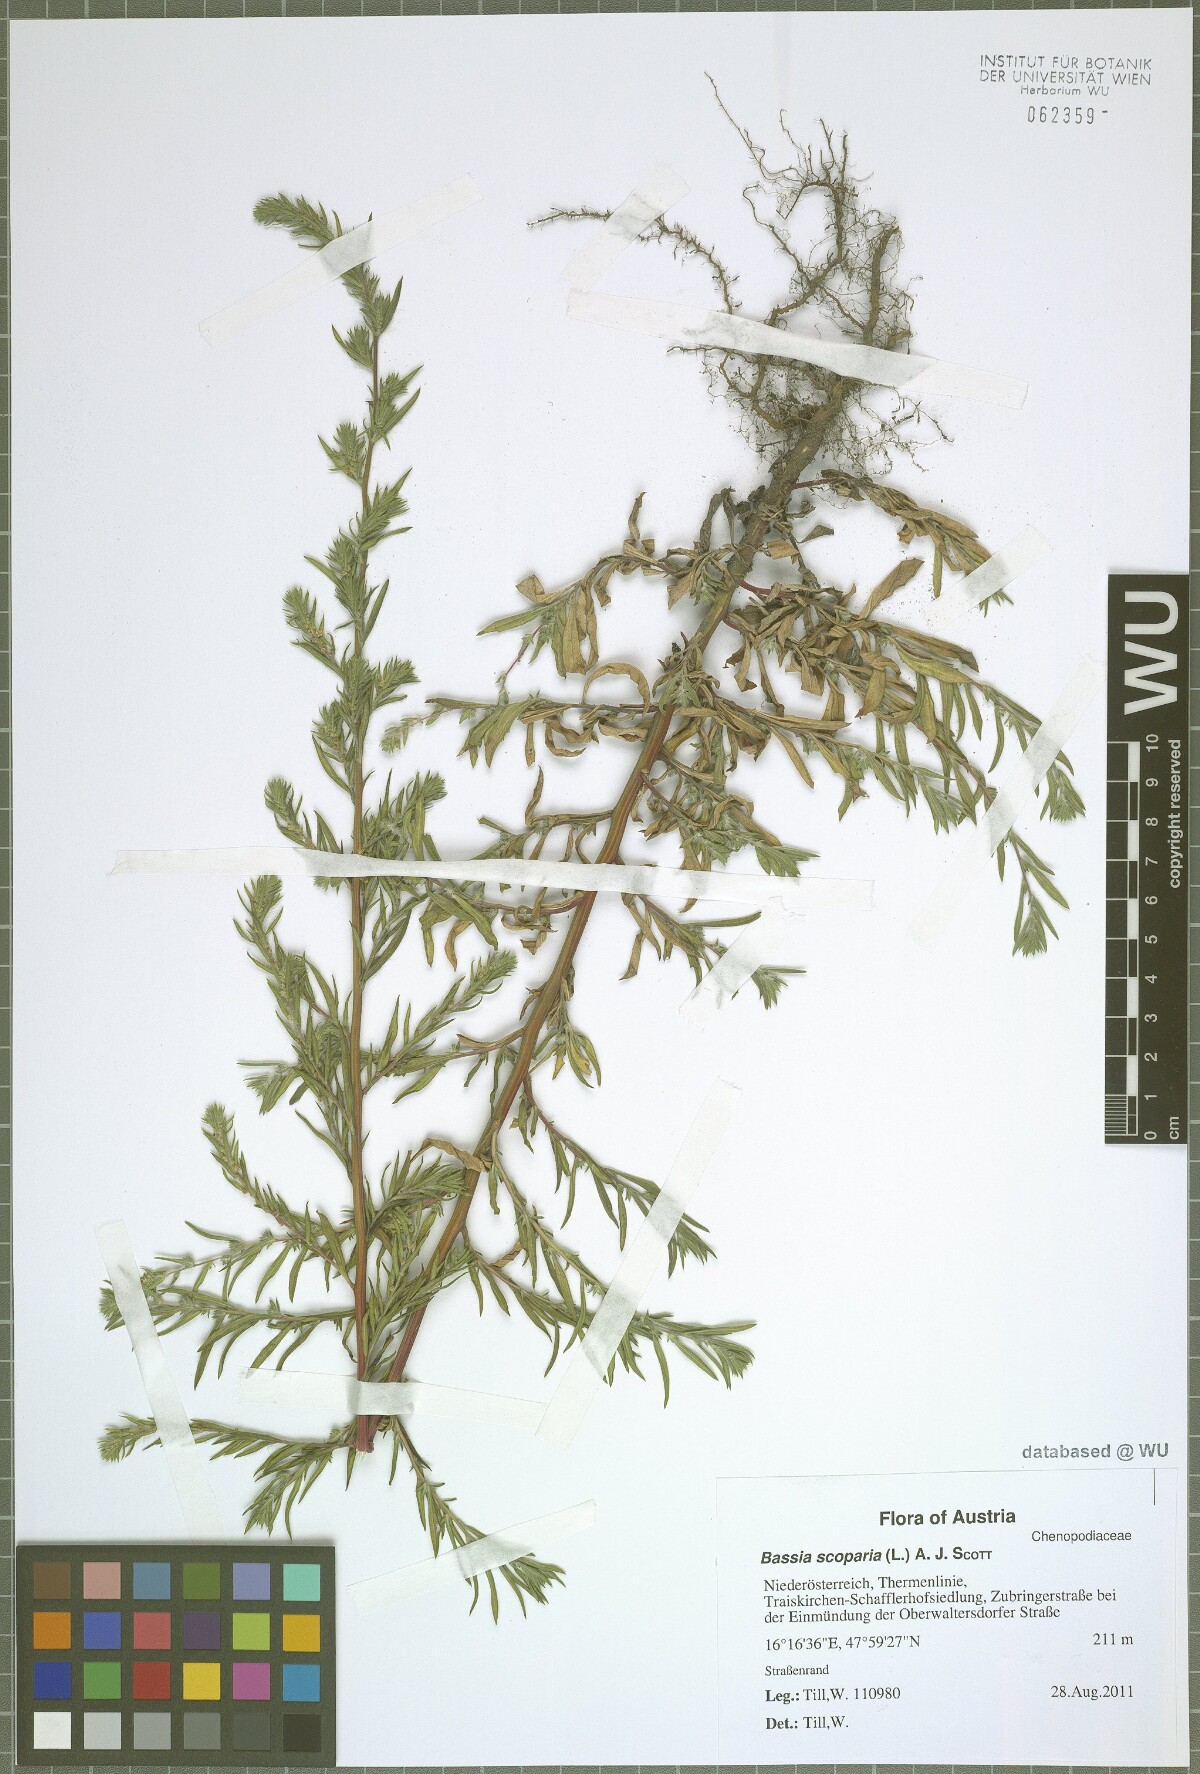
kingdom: Plantae
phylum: Tracheophyta
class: Magnoliopsida
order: Caryophyllales
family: Amaranthaceae
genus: Bassia
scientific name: Bassia scoparia
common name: Belvedere
